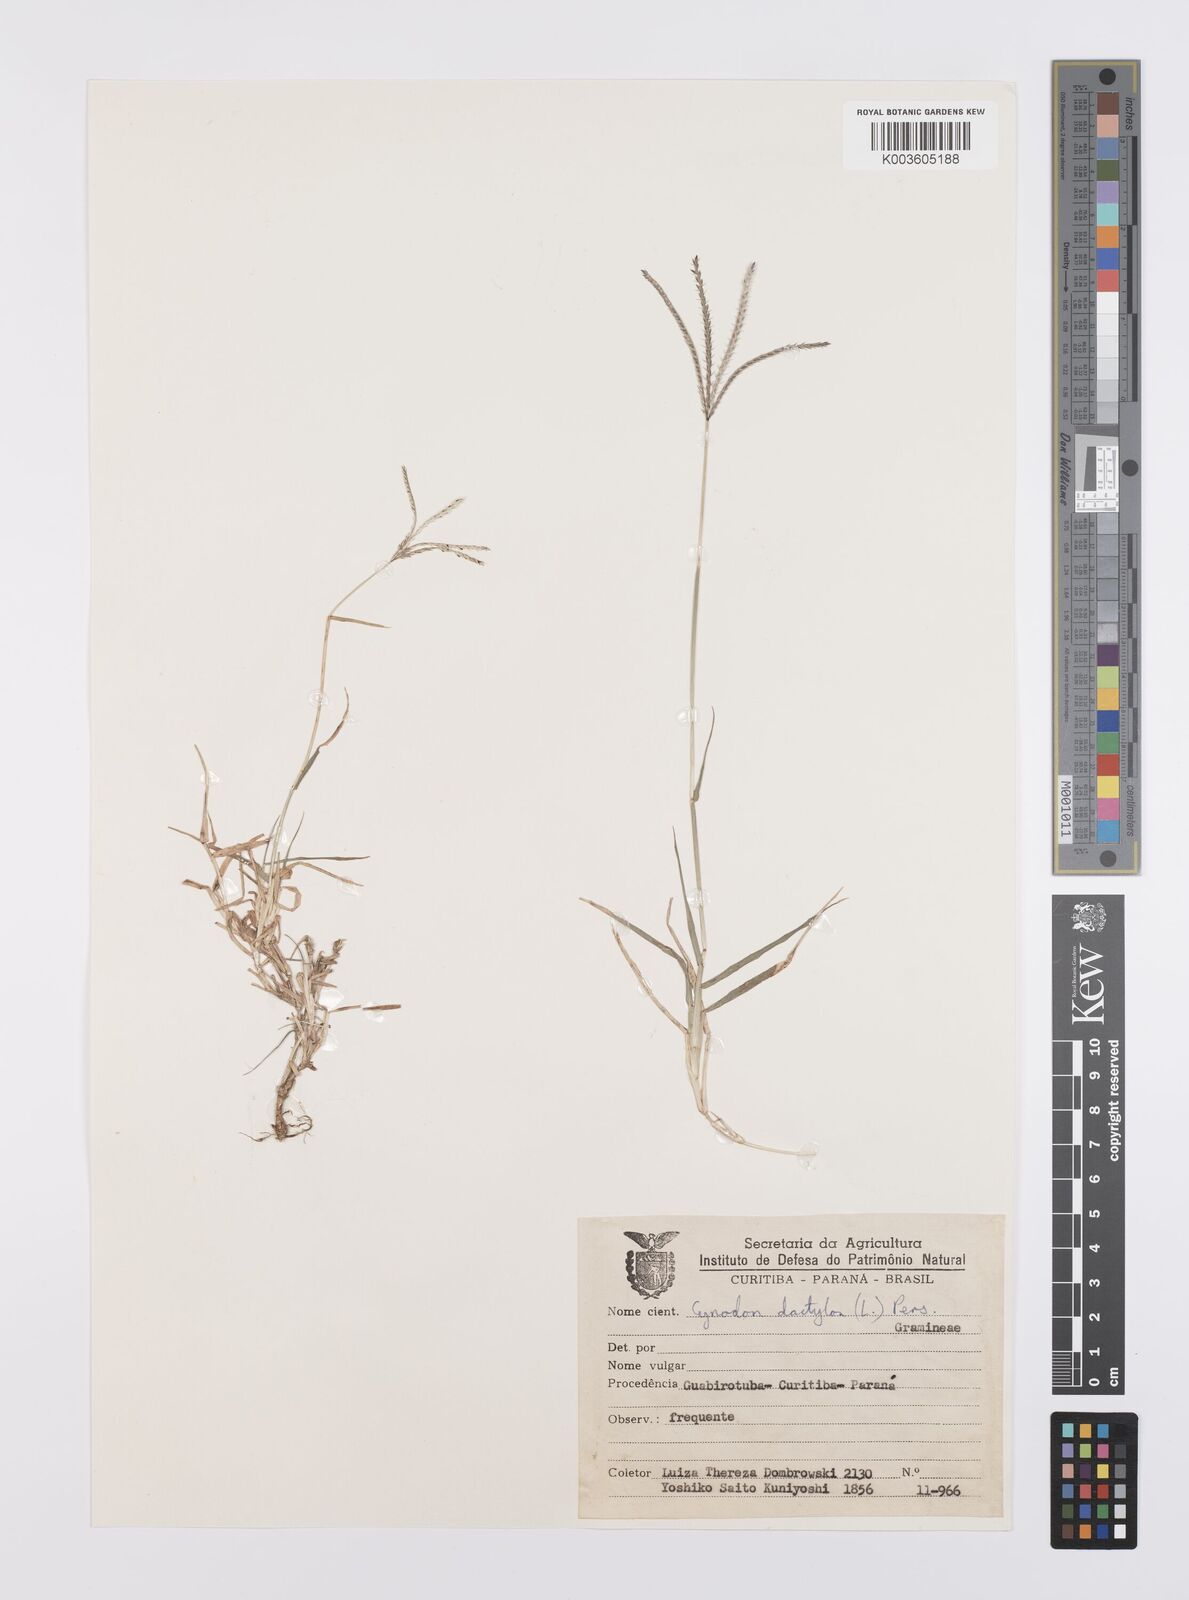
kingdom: Plantae
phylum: Tracheophyta
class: Liliopsida
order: Poales
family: Poaceae
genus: Cynodon
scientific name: Cynodon dactylon
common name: Bermuda grass
